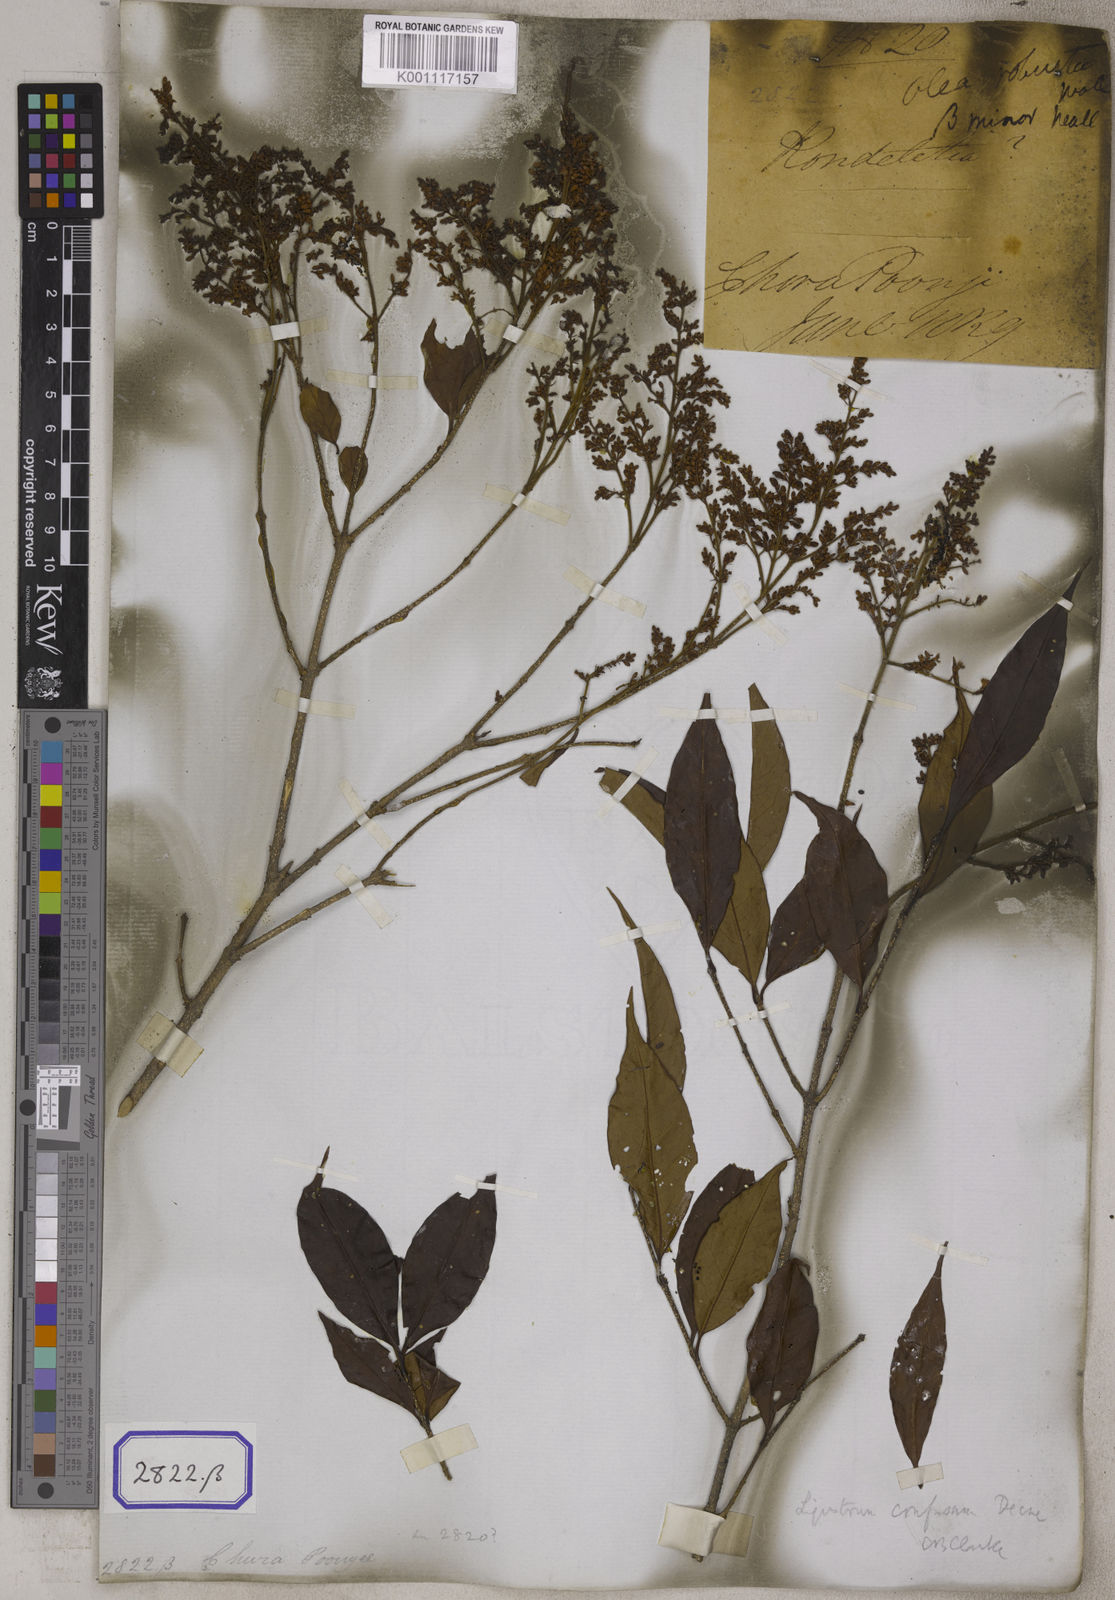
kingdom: Plantae
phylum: Tracheophyta
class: Magnoliopsida
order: Lamiales
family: Oleaceae
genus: Olea
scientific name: Olea
